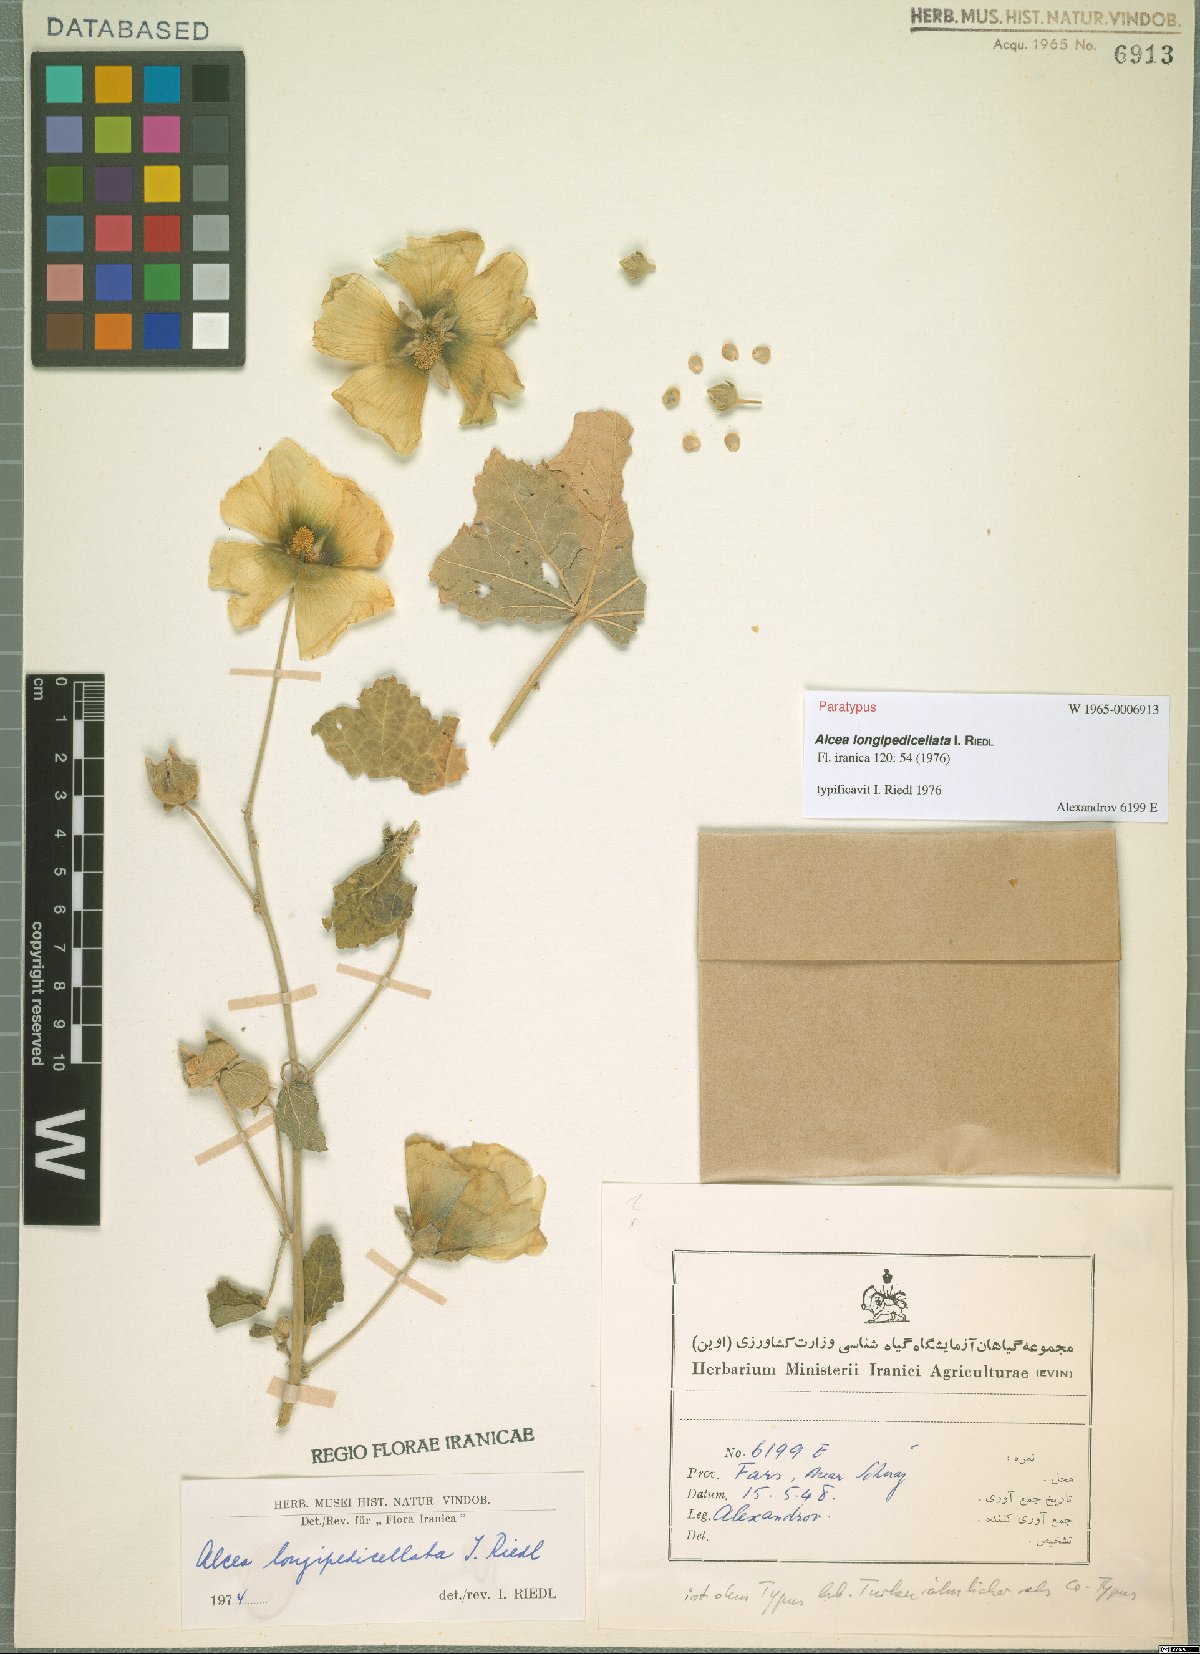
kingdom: Plantae
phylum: Tracheophyta
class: Magnoliopsida
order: Malvales
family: Malvaceae
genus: Alcea
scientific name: Alcea longipedicellata
